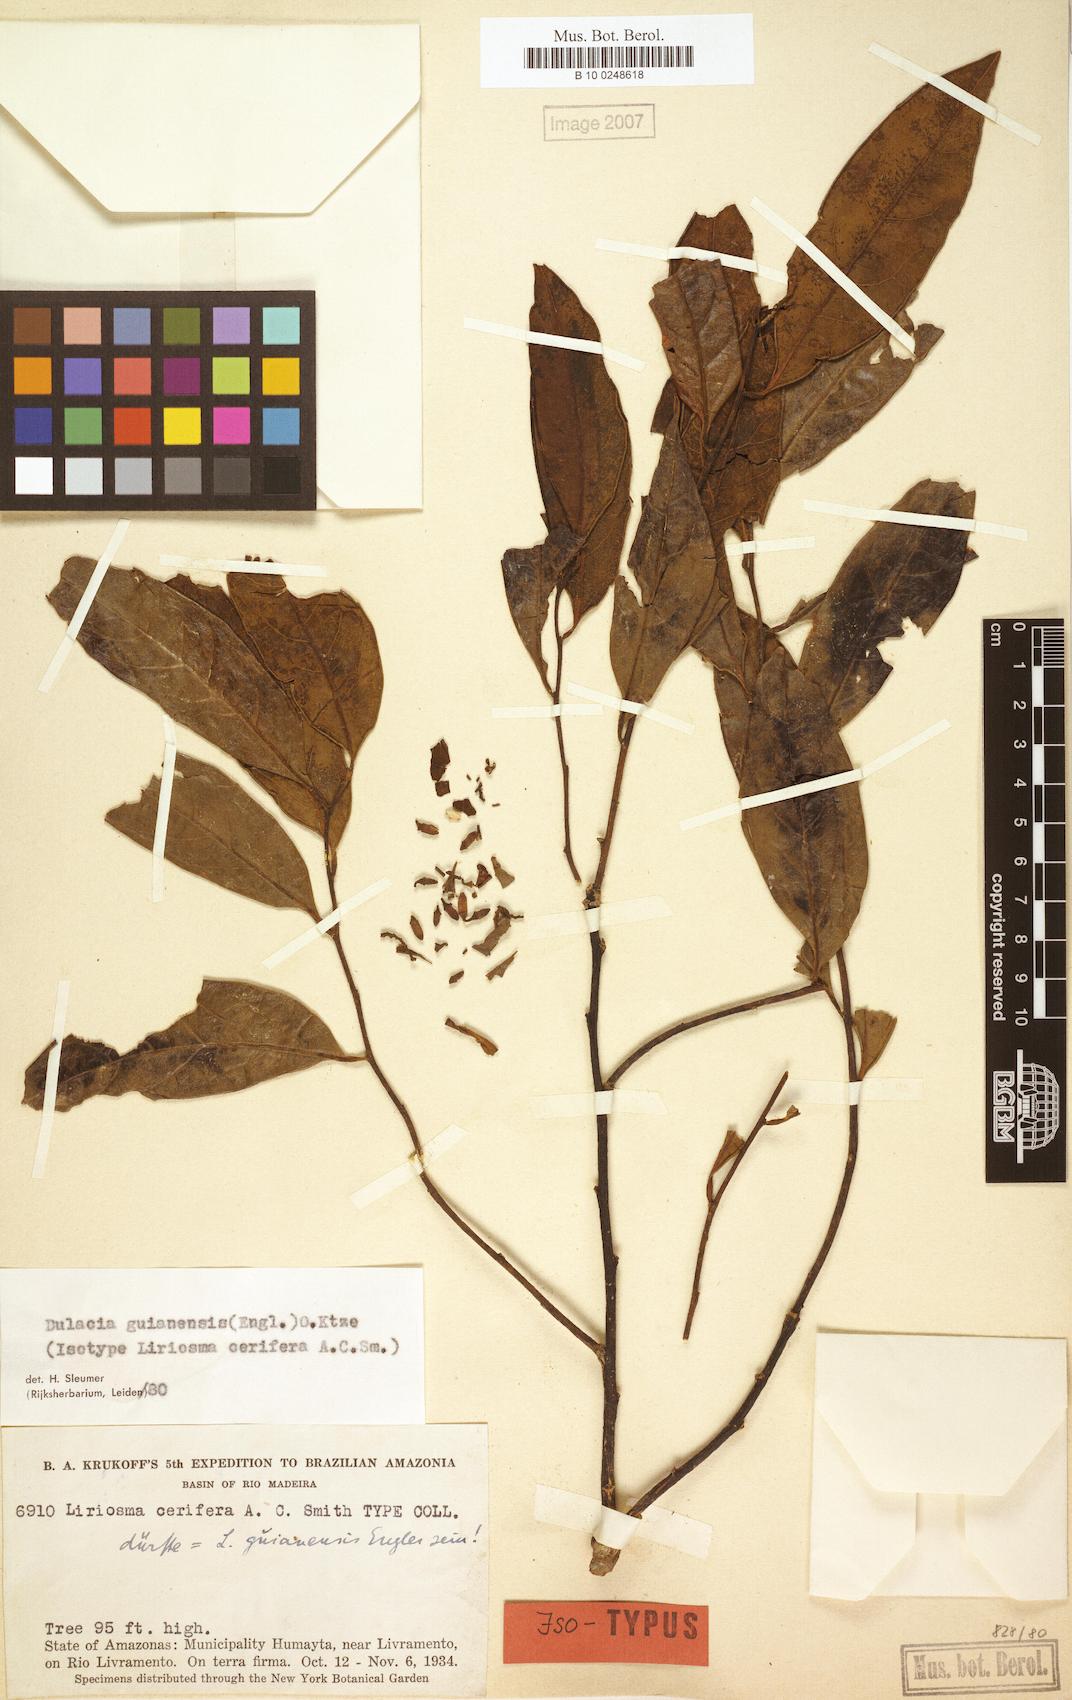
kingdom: Plantae
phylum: Tracheophyta
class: Magnoliopsida
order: Santalales
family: Olacaceae
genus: Dulacia
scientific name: Dulacia guianensis
